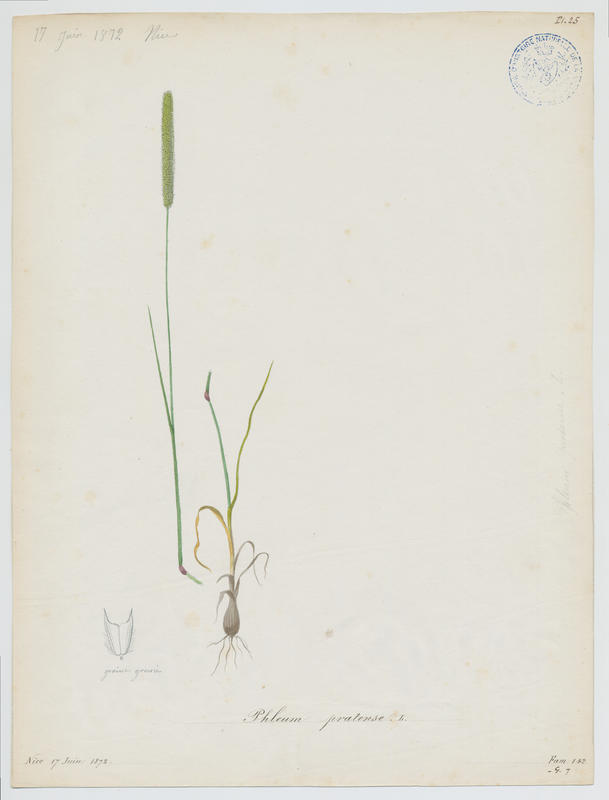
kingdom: Plantae
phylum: Tracheophyta
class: Liliopsida
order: Poales
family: Poaceae
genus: Phleum
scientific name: Phleum pratense
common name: Timothy grass
